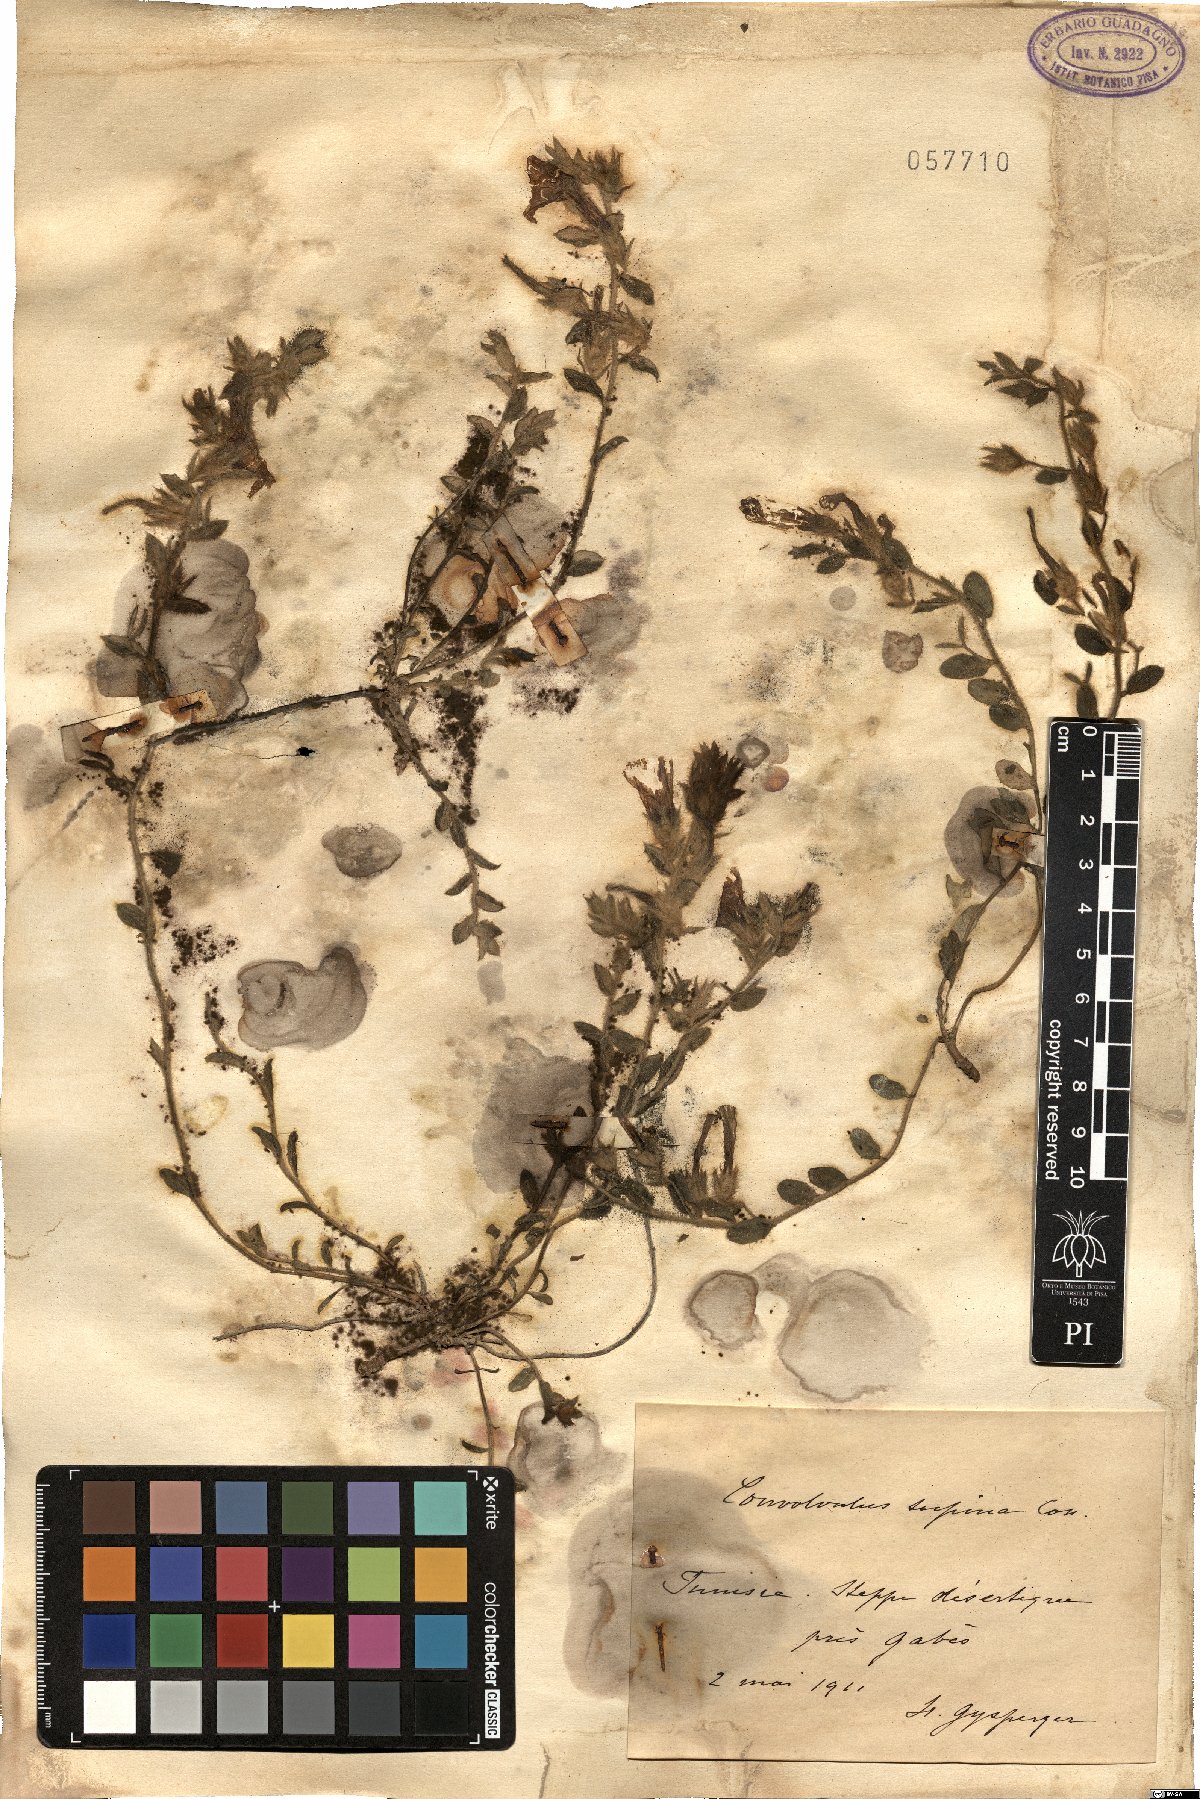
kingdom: Plantae
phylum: Tracheophyta
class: Magnoliopsida
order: Solanales
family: Convolvulaceae
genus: Convolvulus
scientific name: Convolvulus supinus
